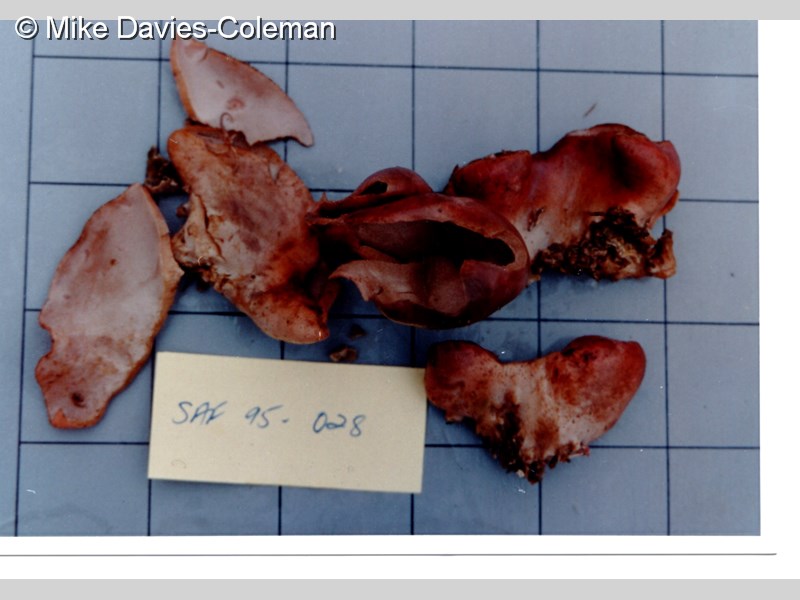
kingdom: Animalia
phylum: Porifera
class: Calcarea
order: Leucosolenida
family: Grantiidae
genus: Amphiute
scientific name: Amphiute lepadiformis
